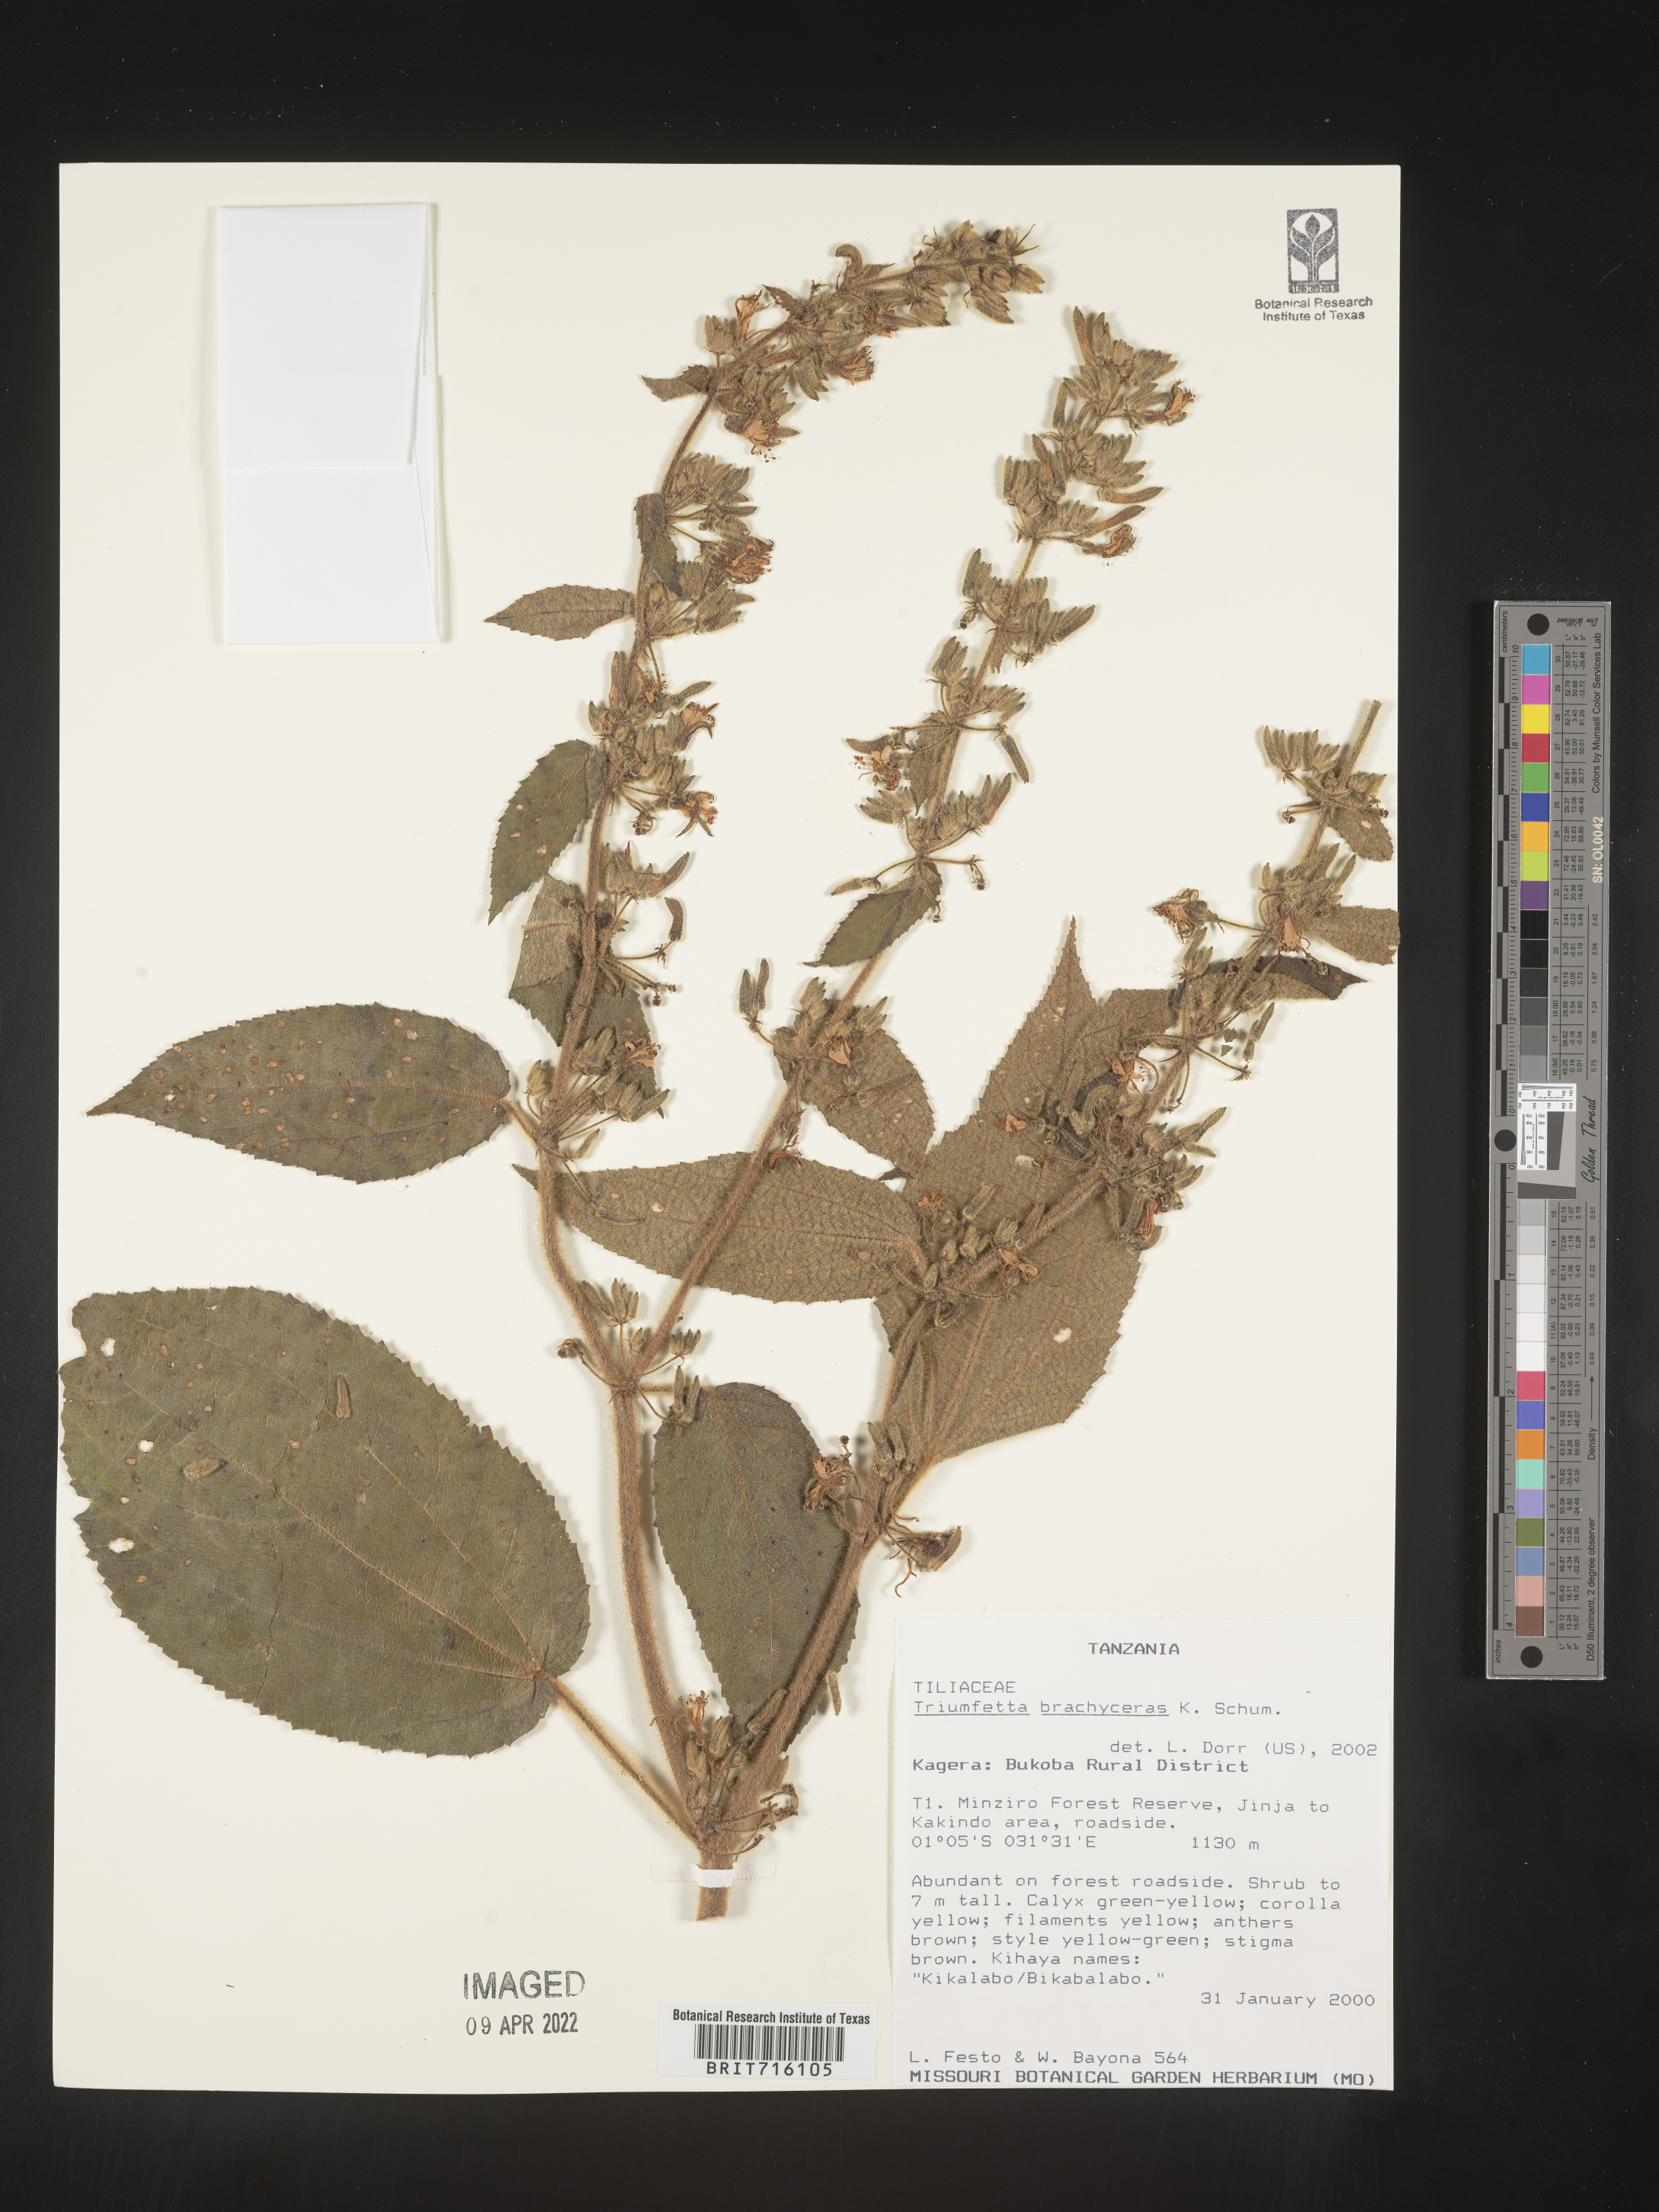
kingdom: Plantae
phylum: Tracheophyta
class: Magnoliopsida
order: Malvales
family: Malvaceae
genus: Triumfetta
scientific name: Triumfetta
